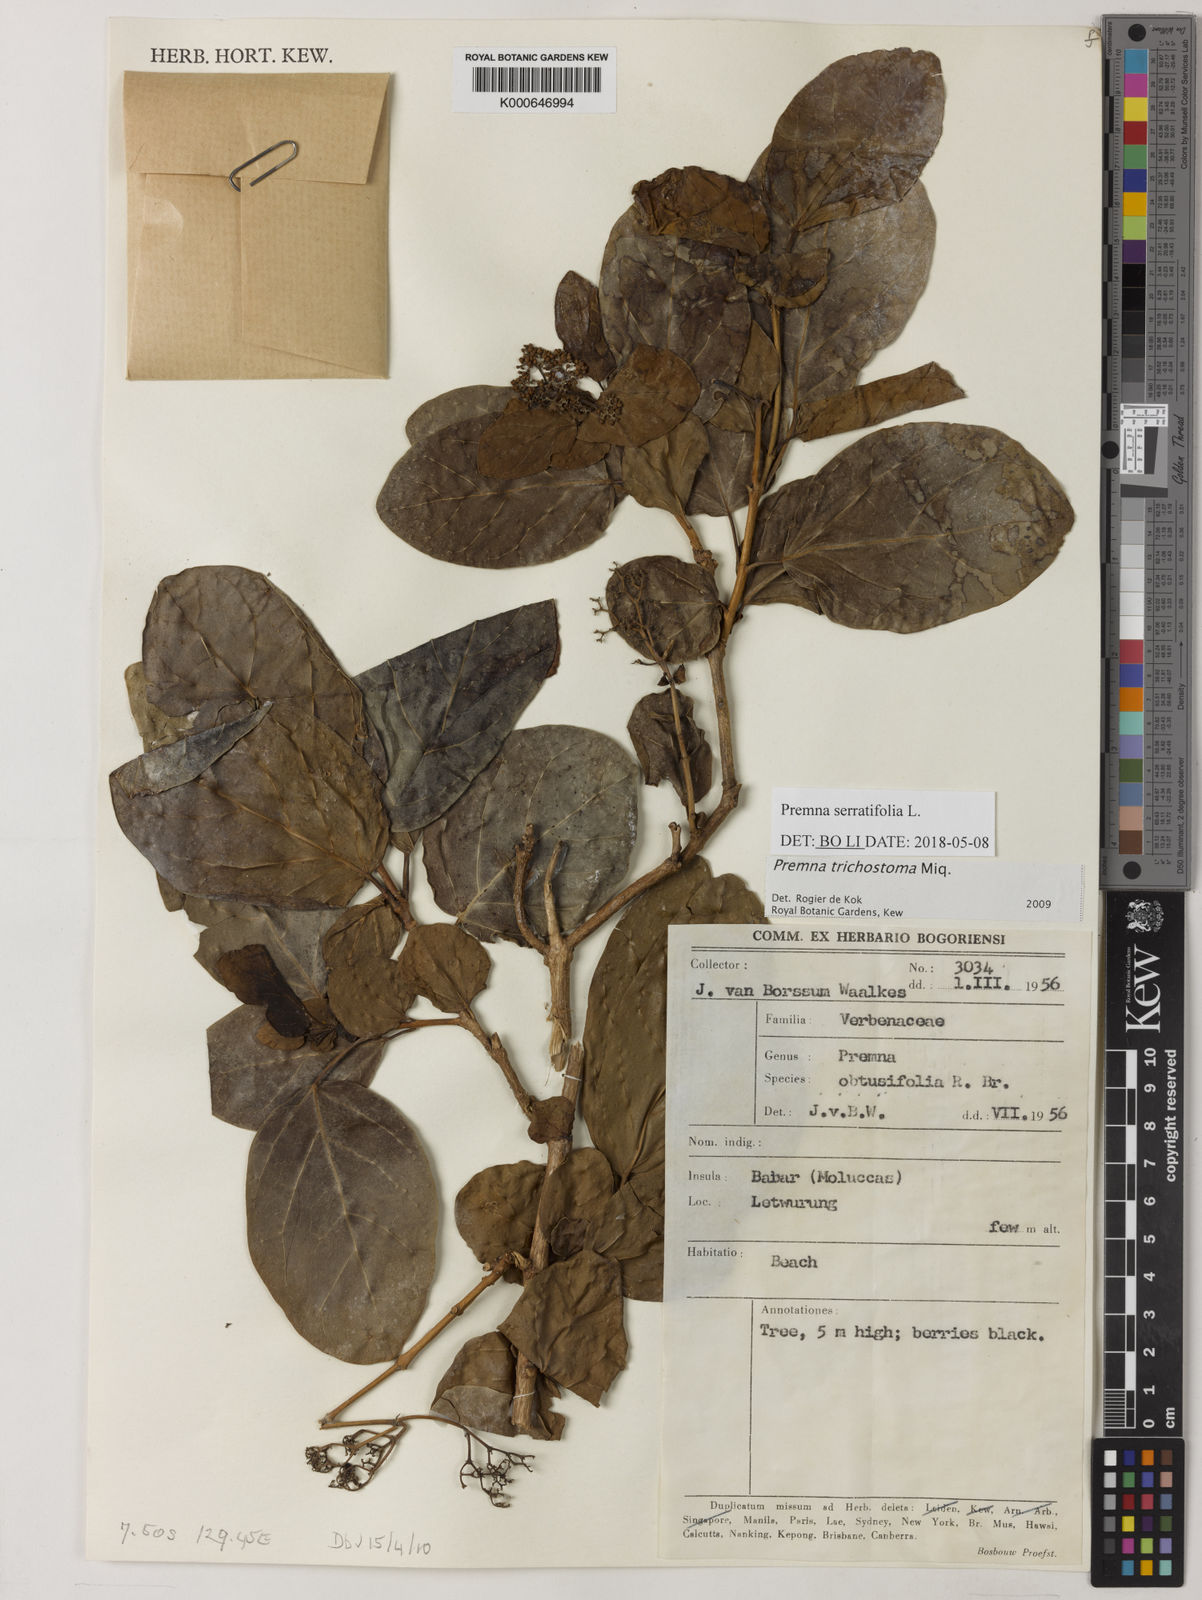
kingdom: Plantae
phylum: Tracheophyta
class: Magnoliopsida
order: Lamiales
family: Lamiaceae
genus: Premna
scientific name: Premna trichostoma
